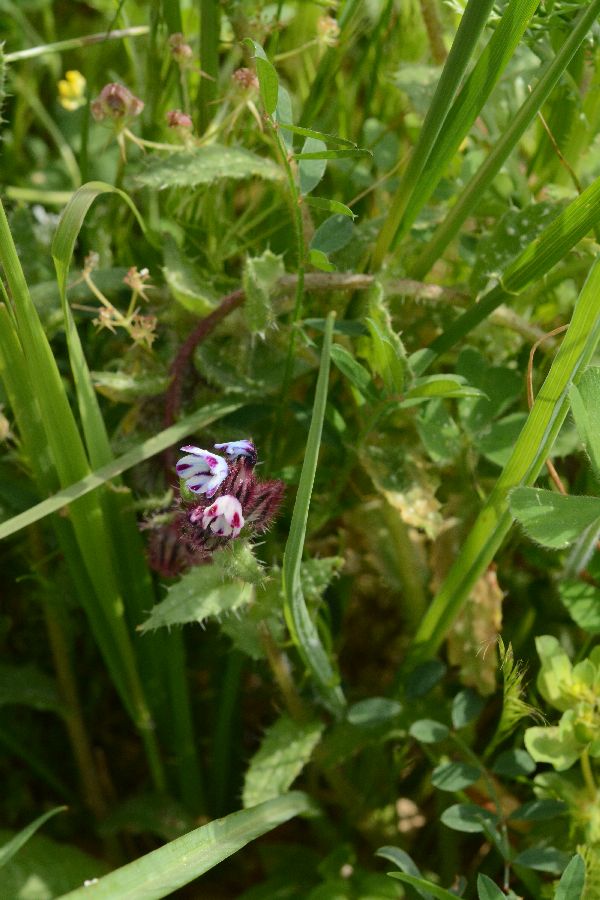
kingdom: Plantae
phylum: Tracheophyta
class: Magnoliopsida
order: Boraginales
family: Boraginaceae
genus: Anchusella
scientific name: Anchusella variegata
